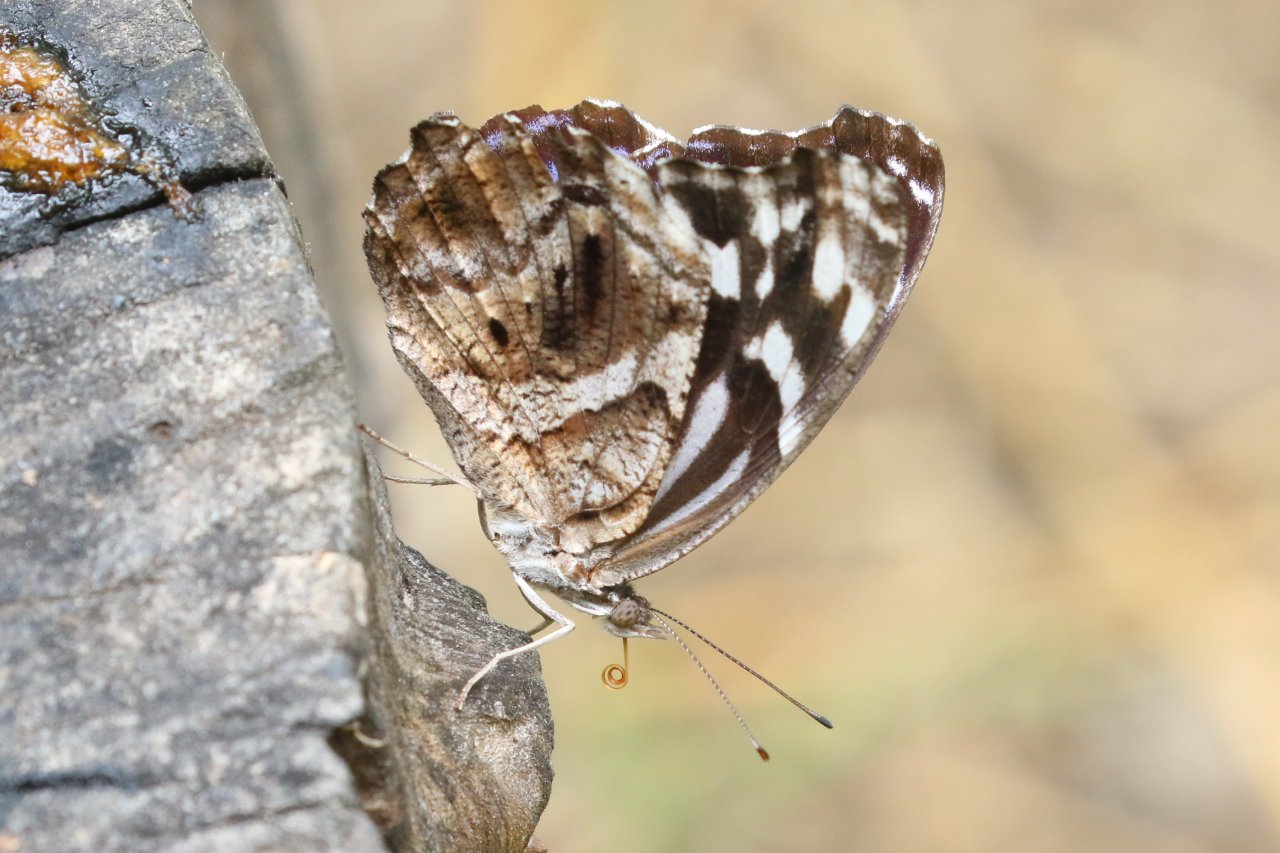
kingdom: Animalia
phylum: Arthropoda
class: Insecta
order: Lepidoptera
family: Nymphalidae
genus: Myscelia
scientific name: Myscelia ethusa
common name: Mexican Bluewing
